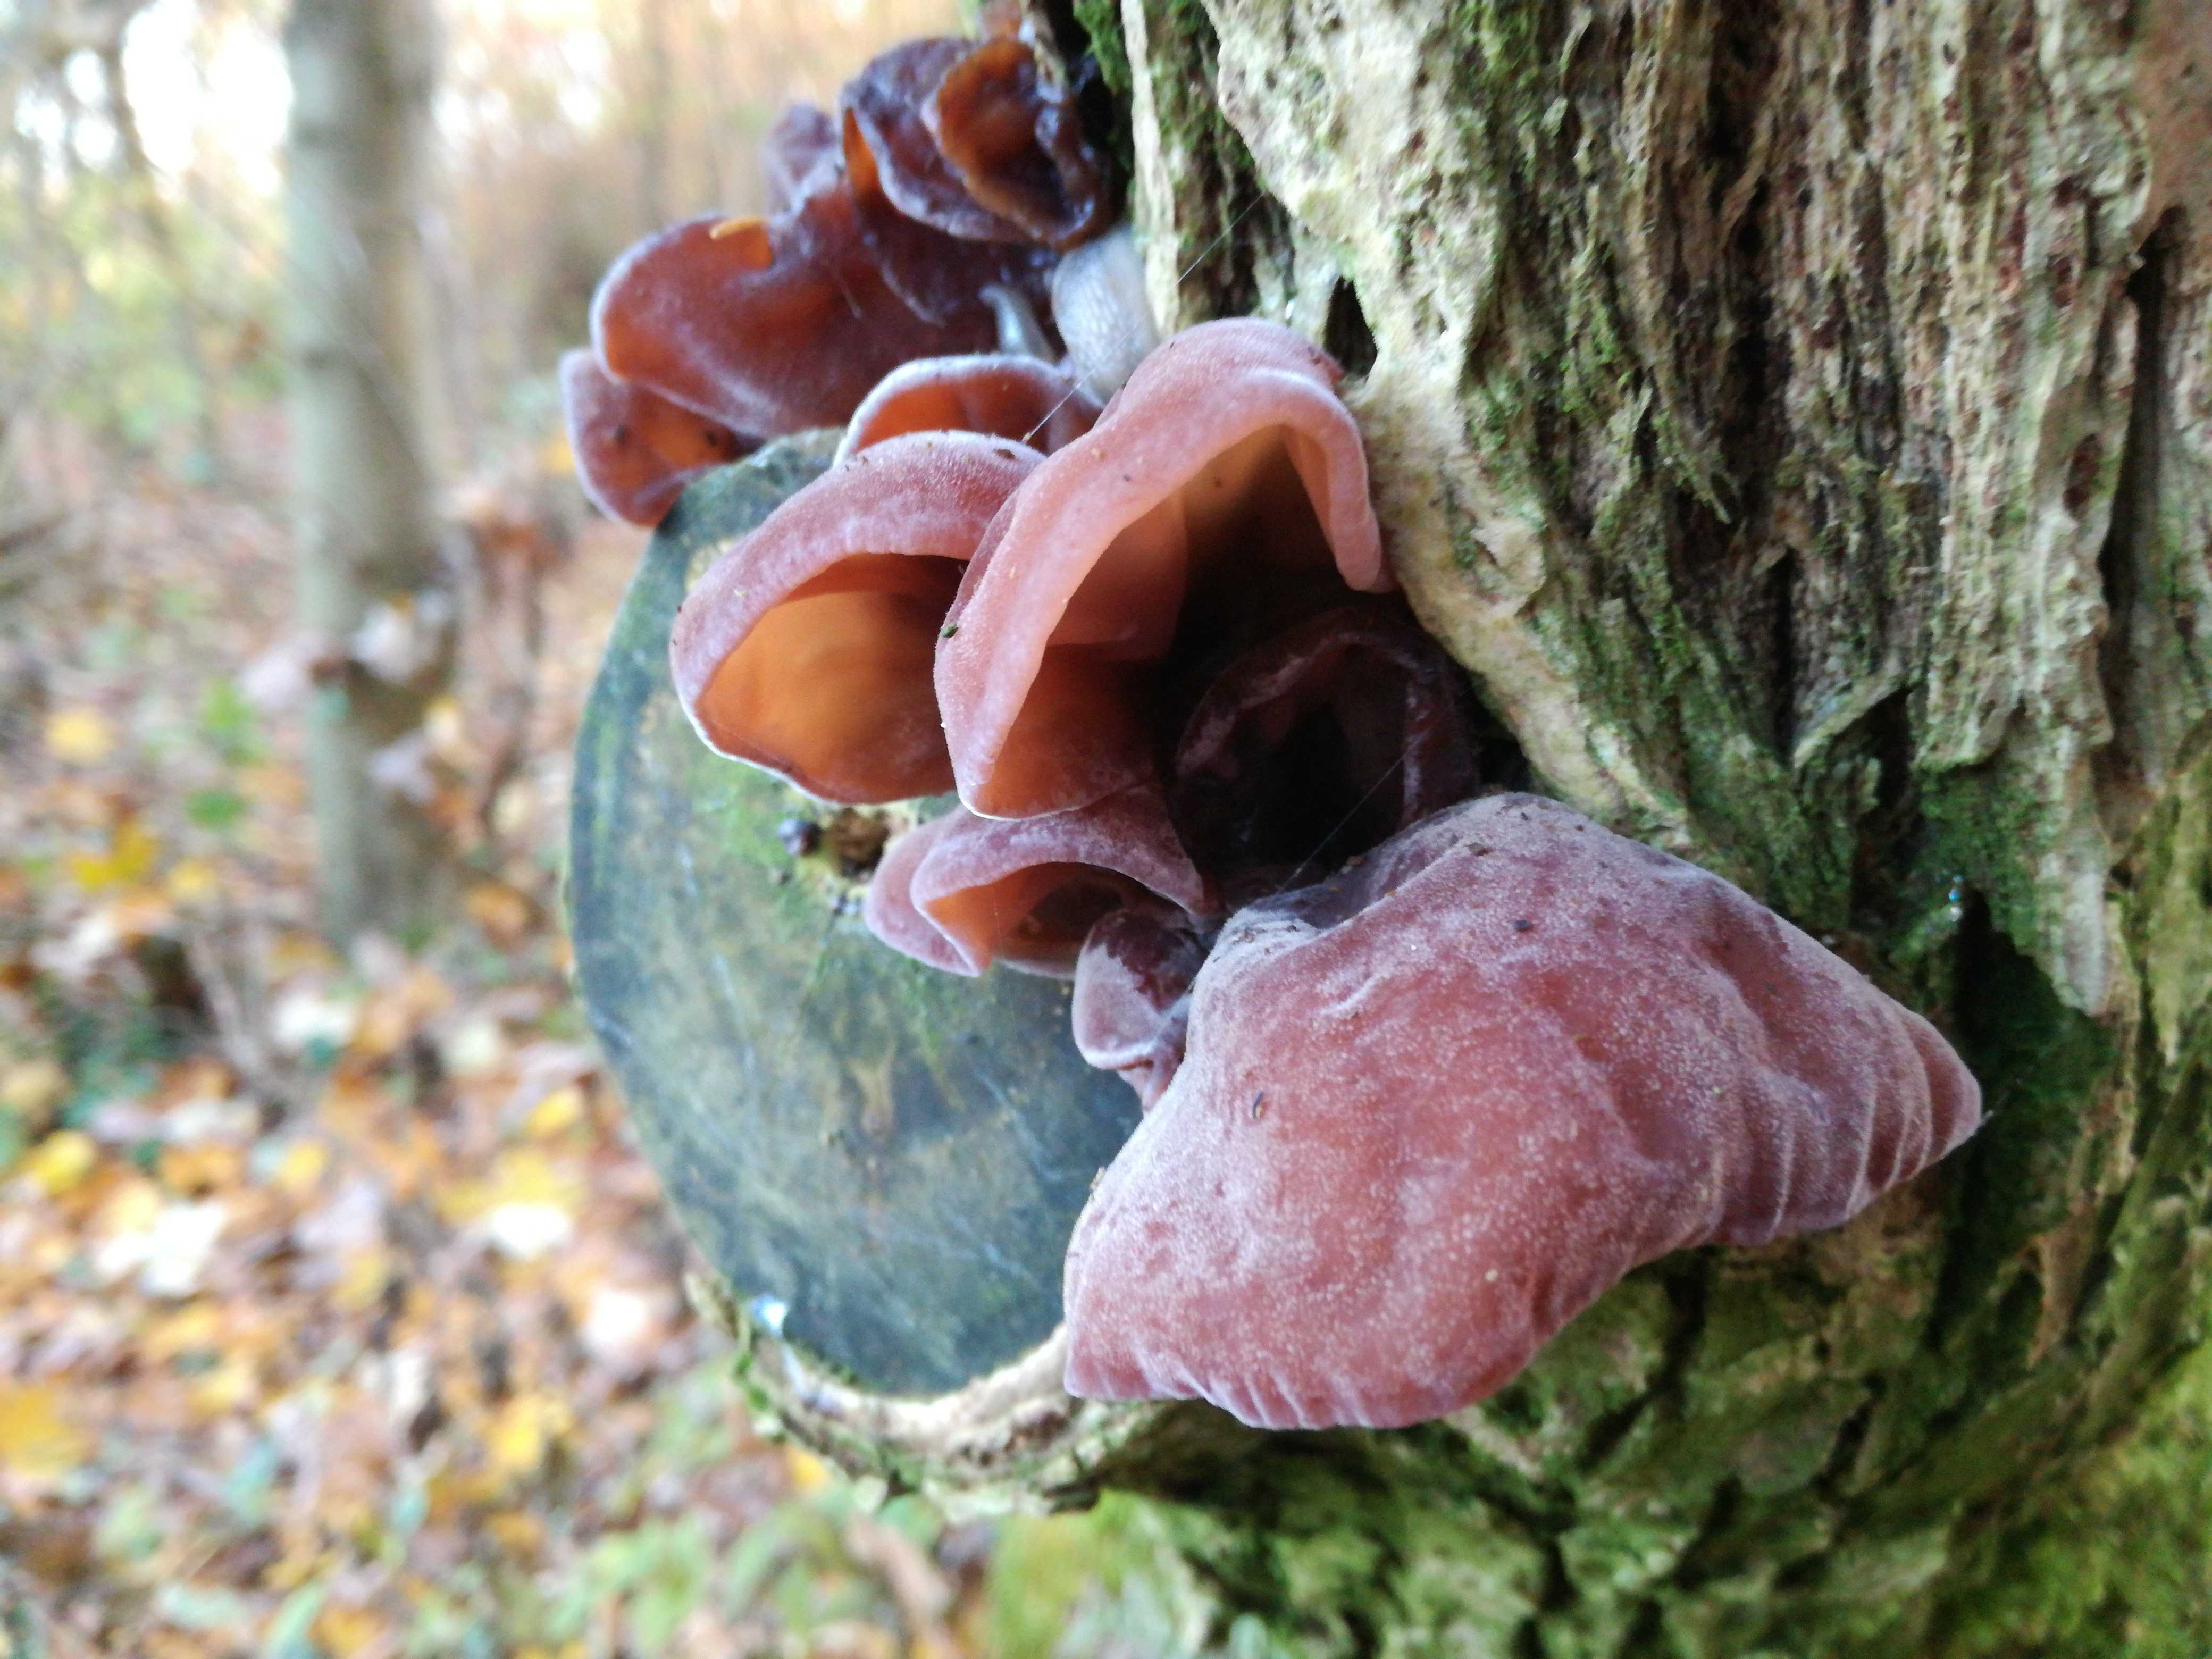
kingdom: Fungi
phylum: Basidiomycota
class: Agaricomycetes
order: Auriculariales
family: Auriculariaceae
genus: Auricularia
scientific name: Auricularia auricula-judae
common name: almindelig judasøre
